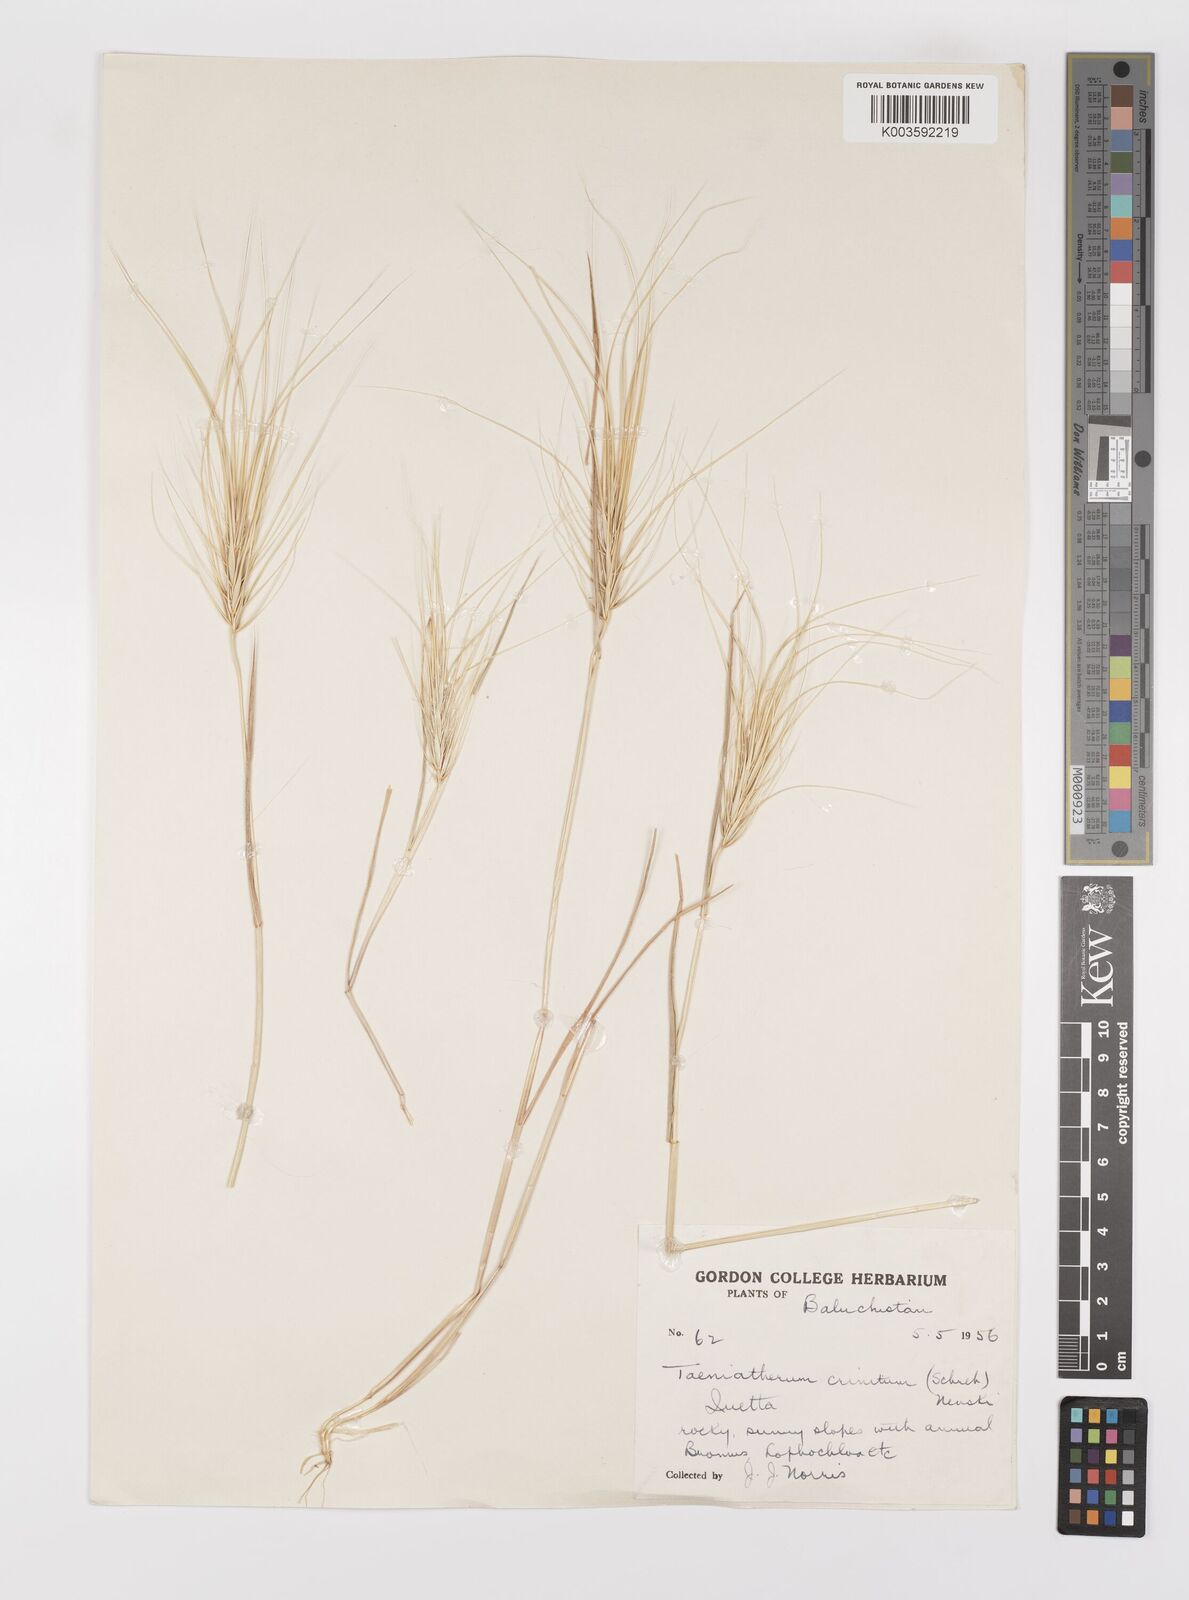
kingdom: Plantae
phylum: Tracheophyta
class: Liliopsida
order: Poales
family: Poaceae
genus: Taeniatherum
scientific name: Taeniatherum caput-medusae
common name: Medusahead
